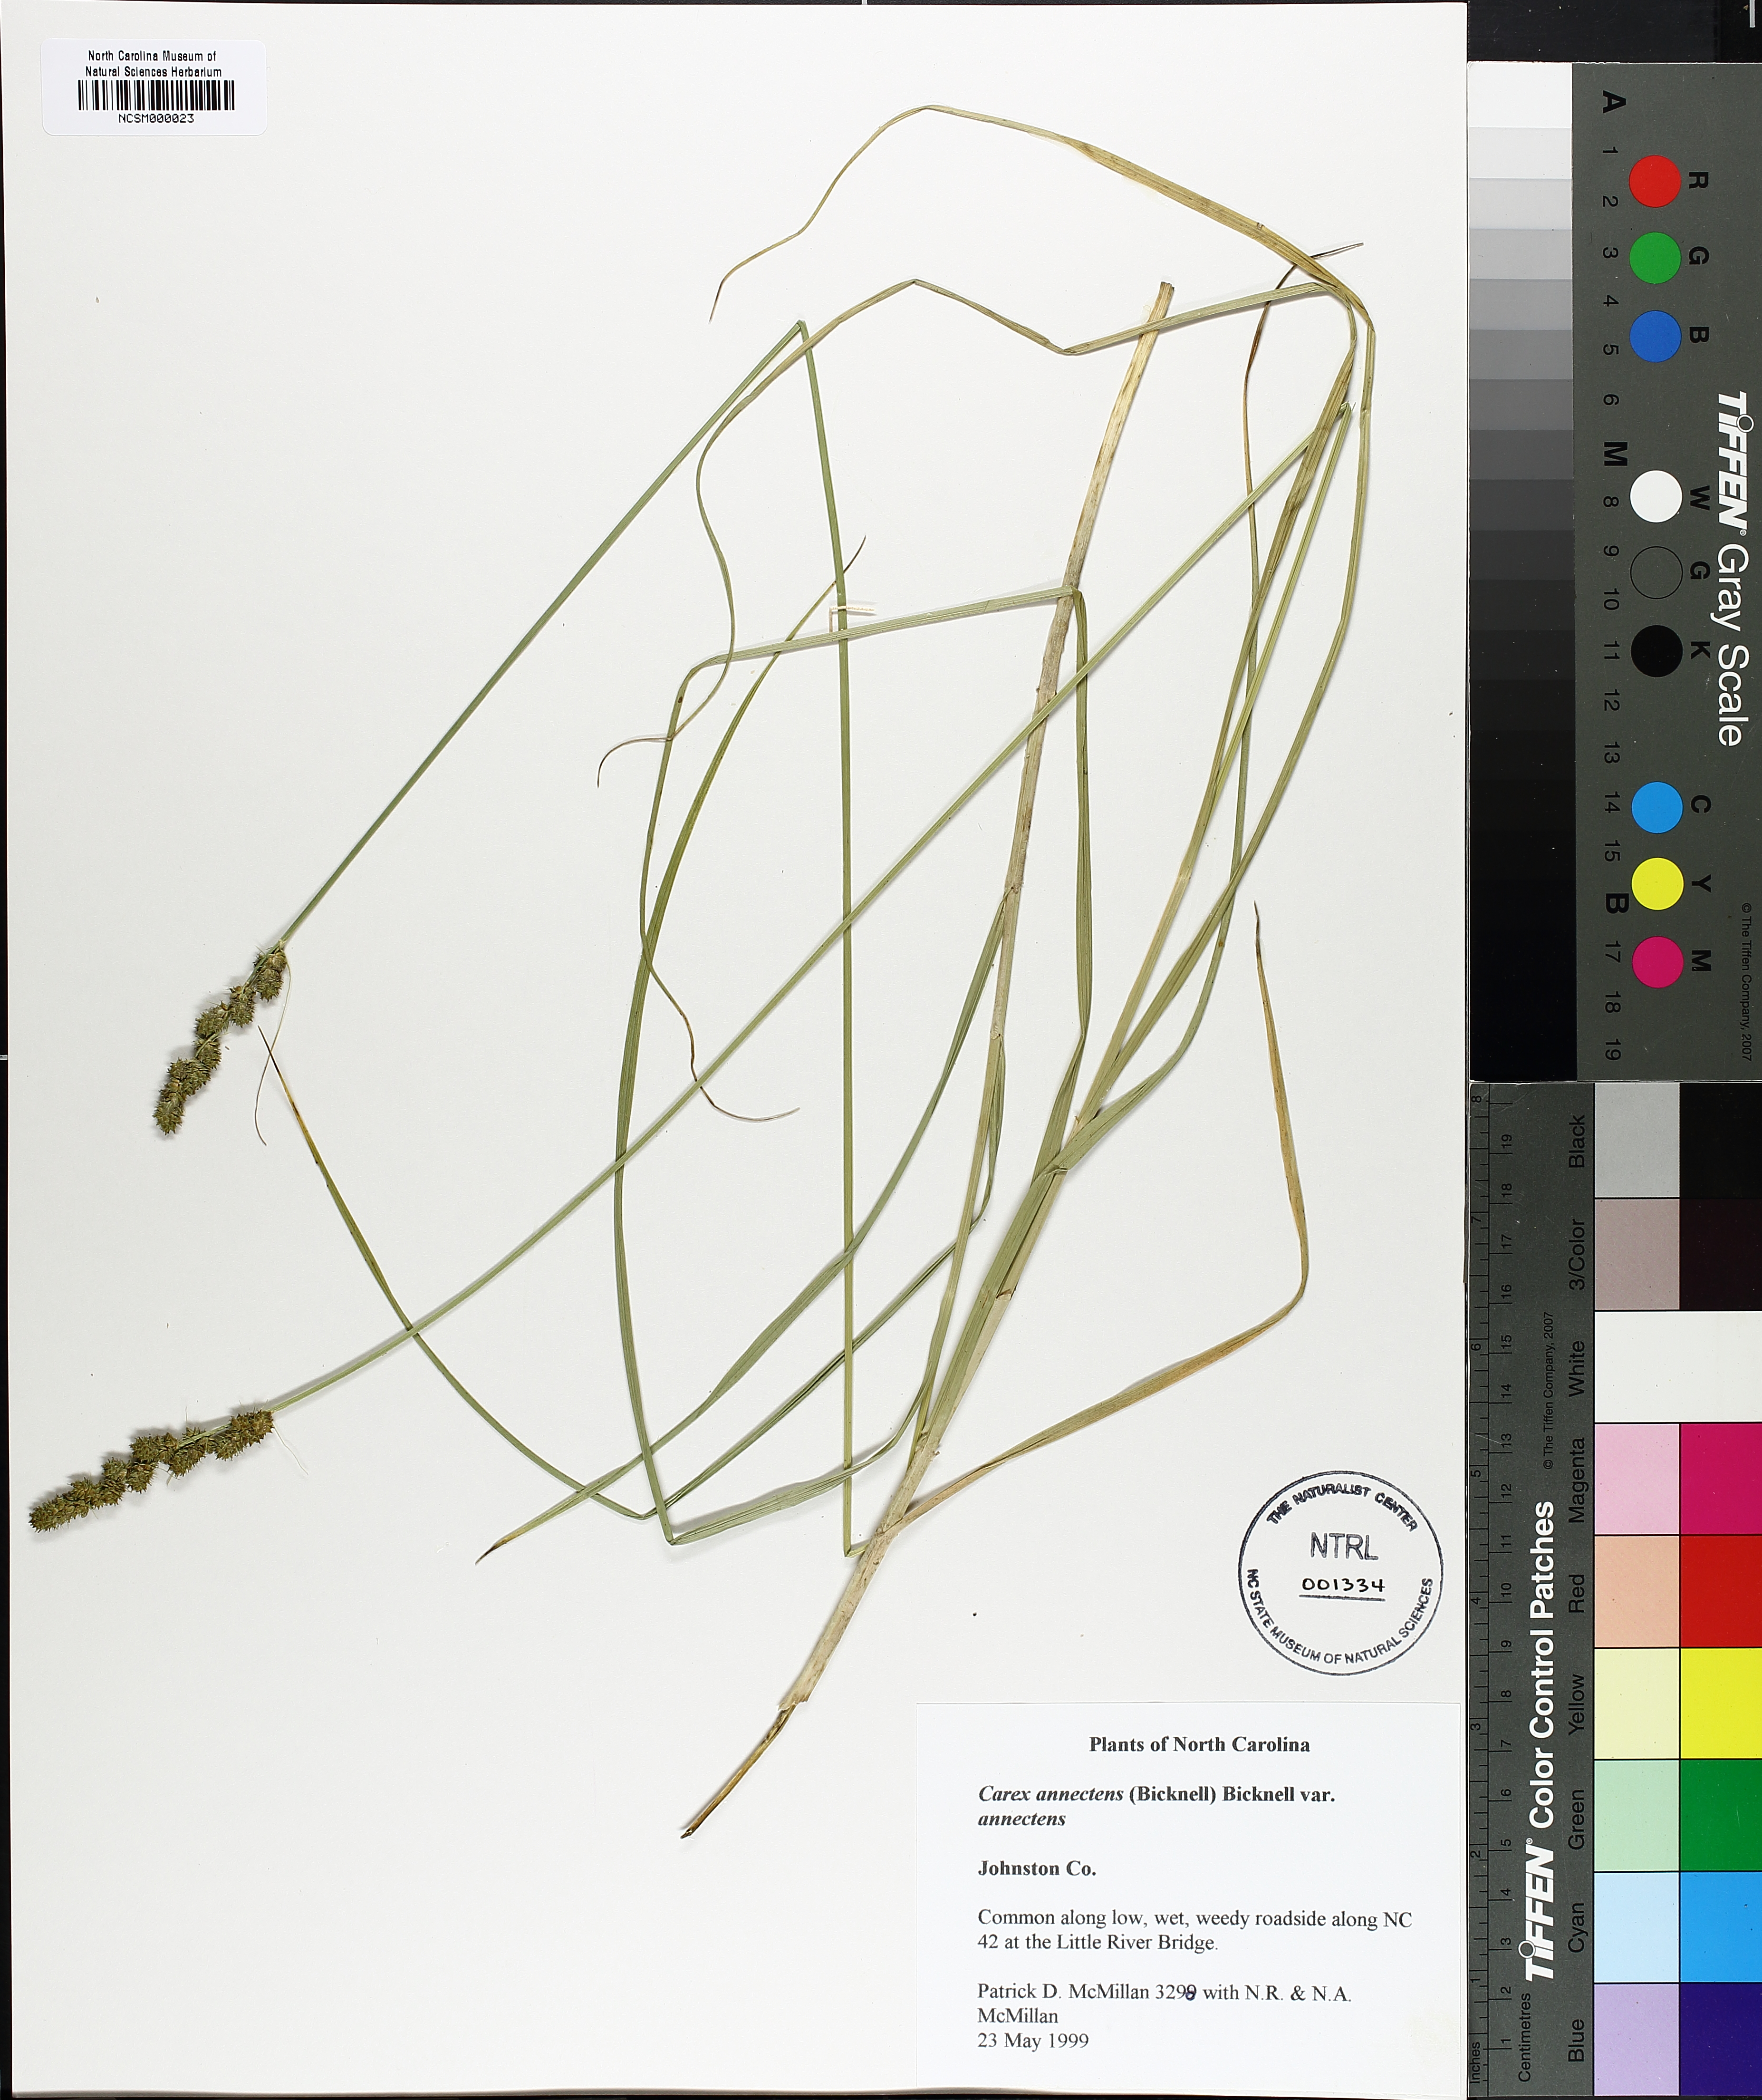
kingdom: Plantae
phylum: Tracheophyta
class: Liliopsida
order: Poales
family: Cyperaceae
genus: Carex
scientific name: Carex annectens
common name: Large fox sedge
